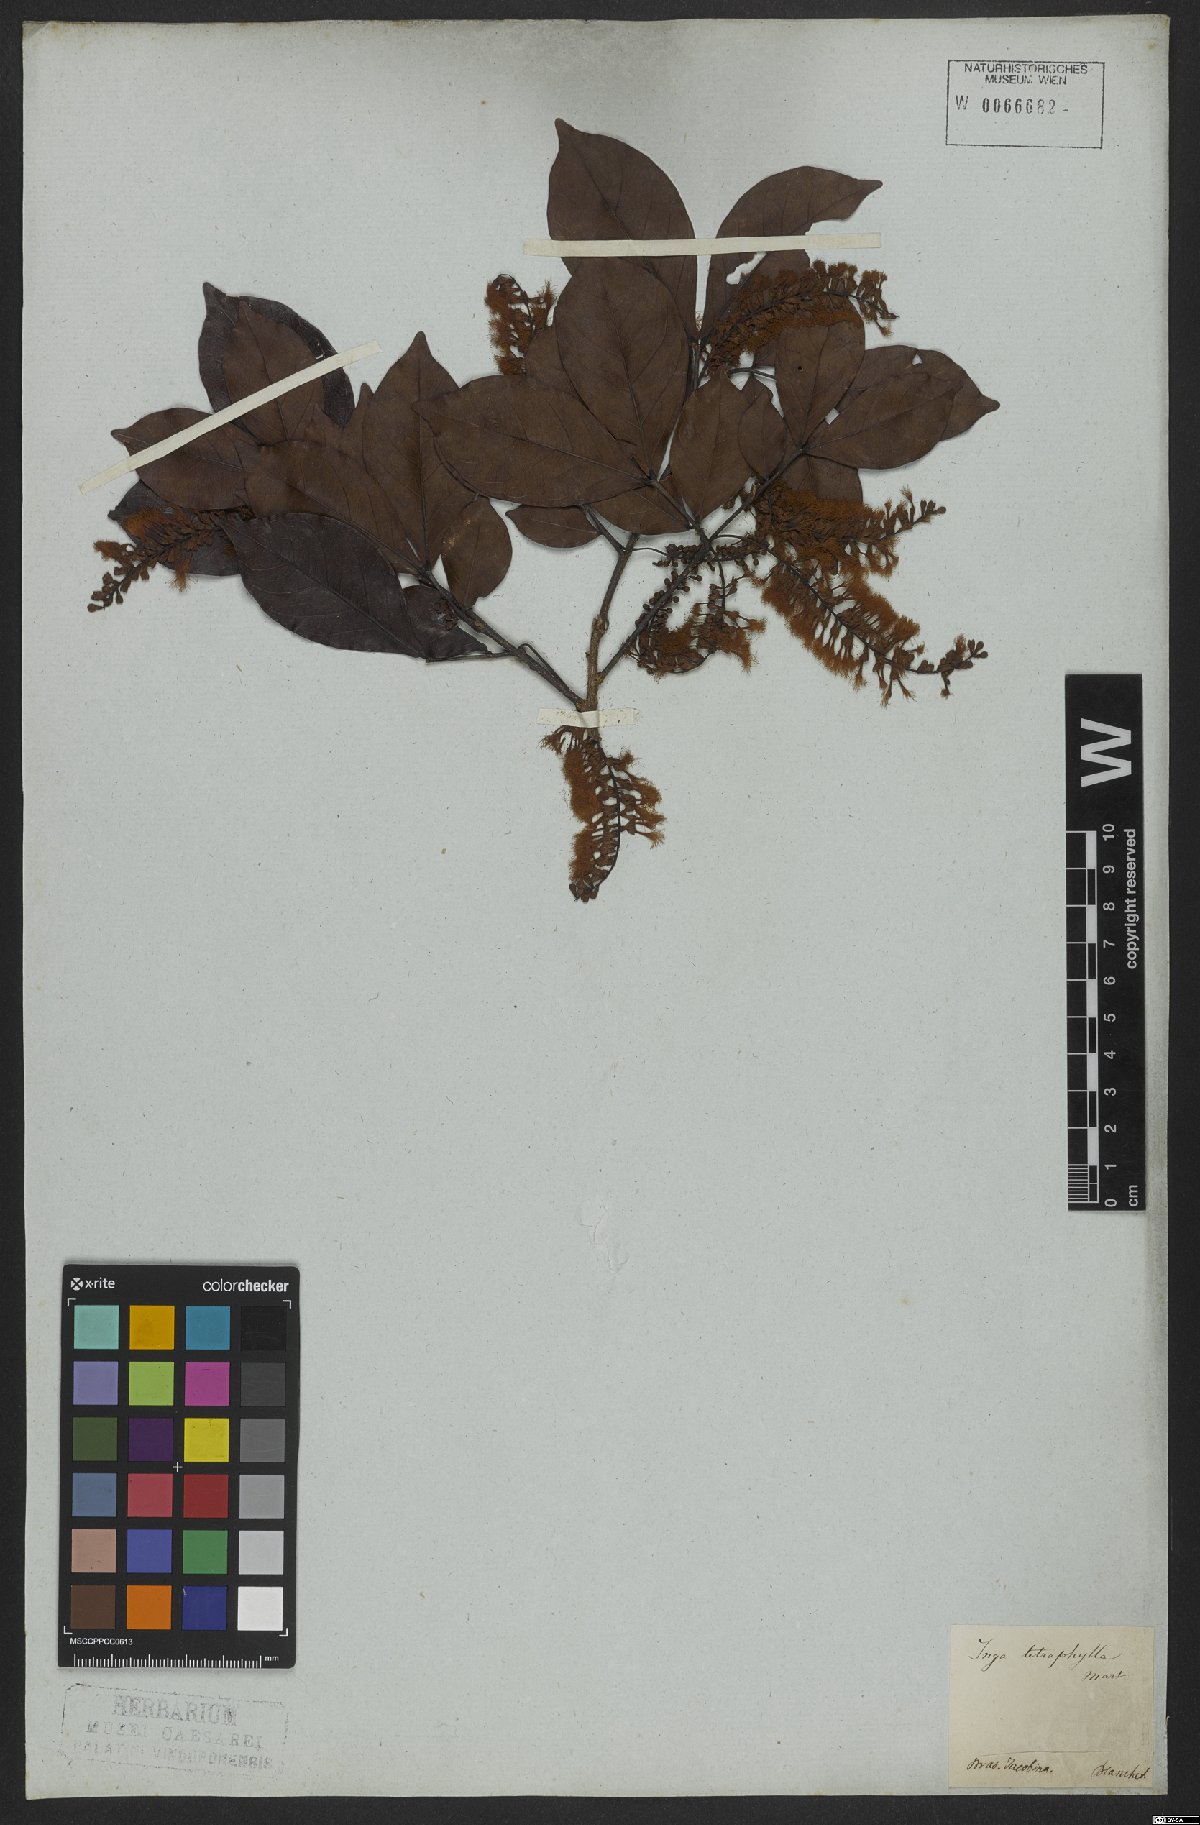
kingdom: Plantae
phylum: Tracheophyta
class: Magnoliopsida
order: Fabales
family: Fabaceae
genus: Inga
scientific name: Inga laurina
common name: Red wood
